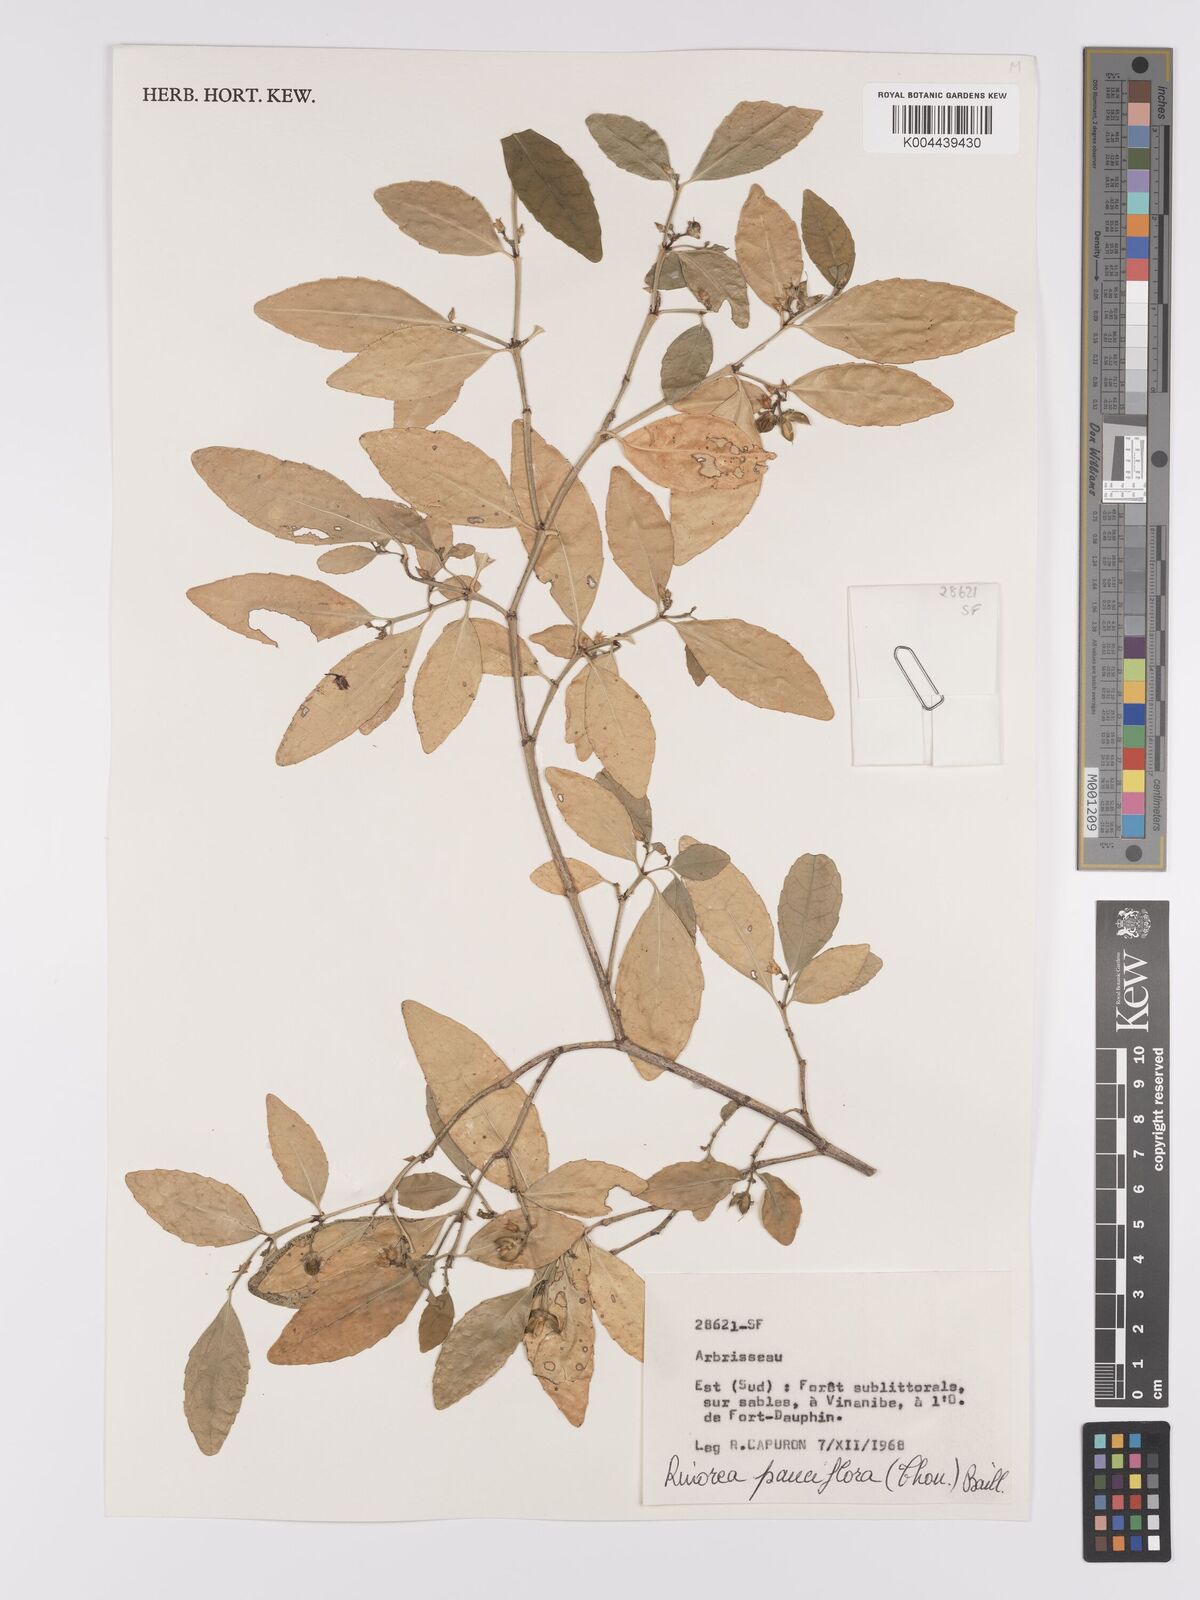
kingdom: Plantae
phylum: Tracheophyta
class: Magnoliopsida
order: Malpighiales
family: Violaceae
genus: Rinorea
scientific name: Rinorea pauciflora
